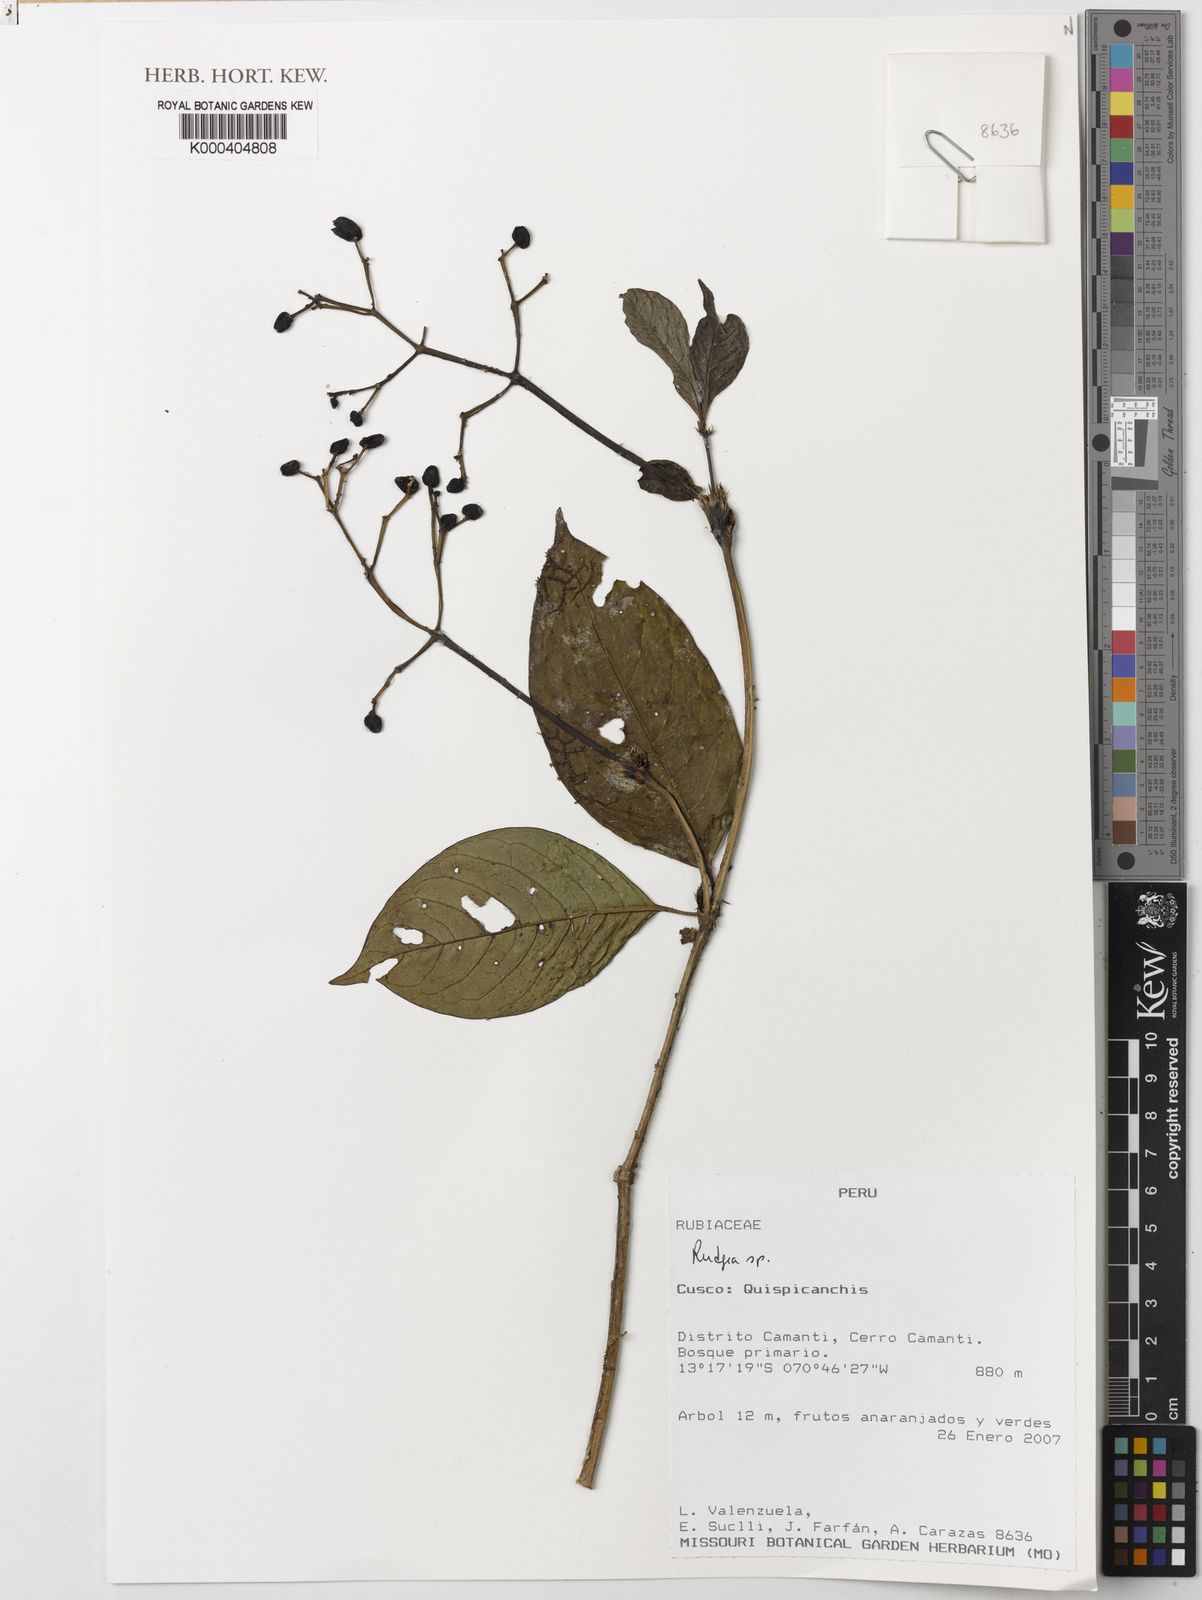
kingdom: Plantae
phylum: Tracheophyta
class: Magnoliopsida
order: Gentianales
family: Rubiaceae
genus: Rudgea
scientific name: Rudgea
